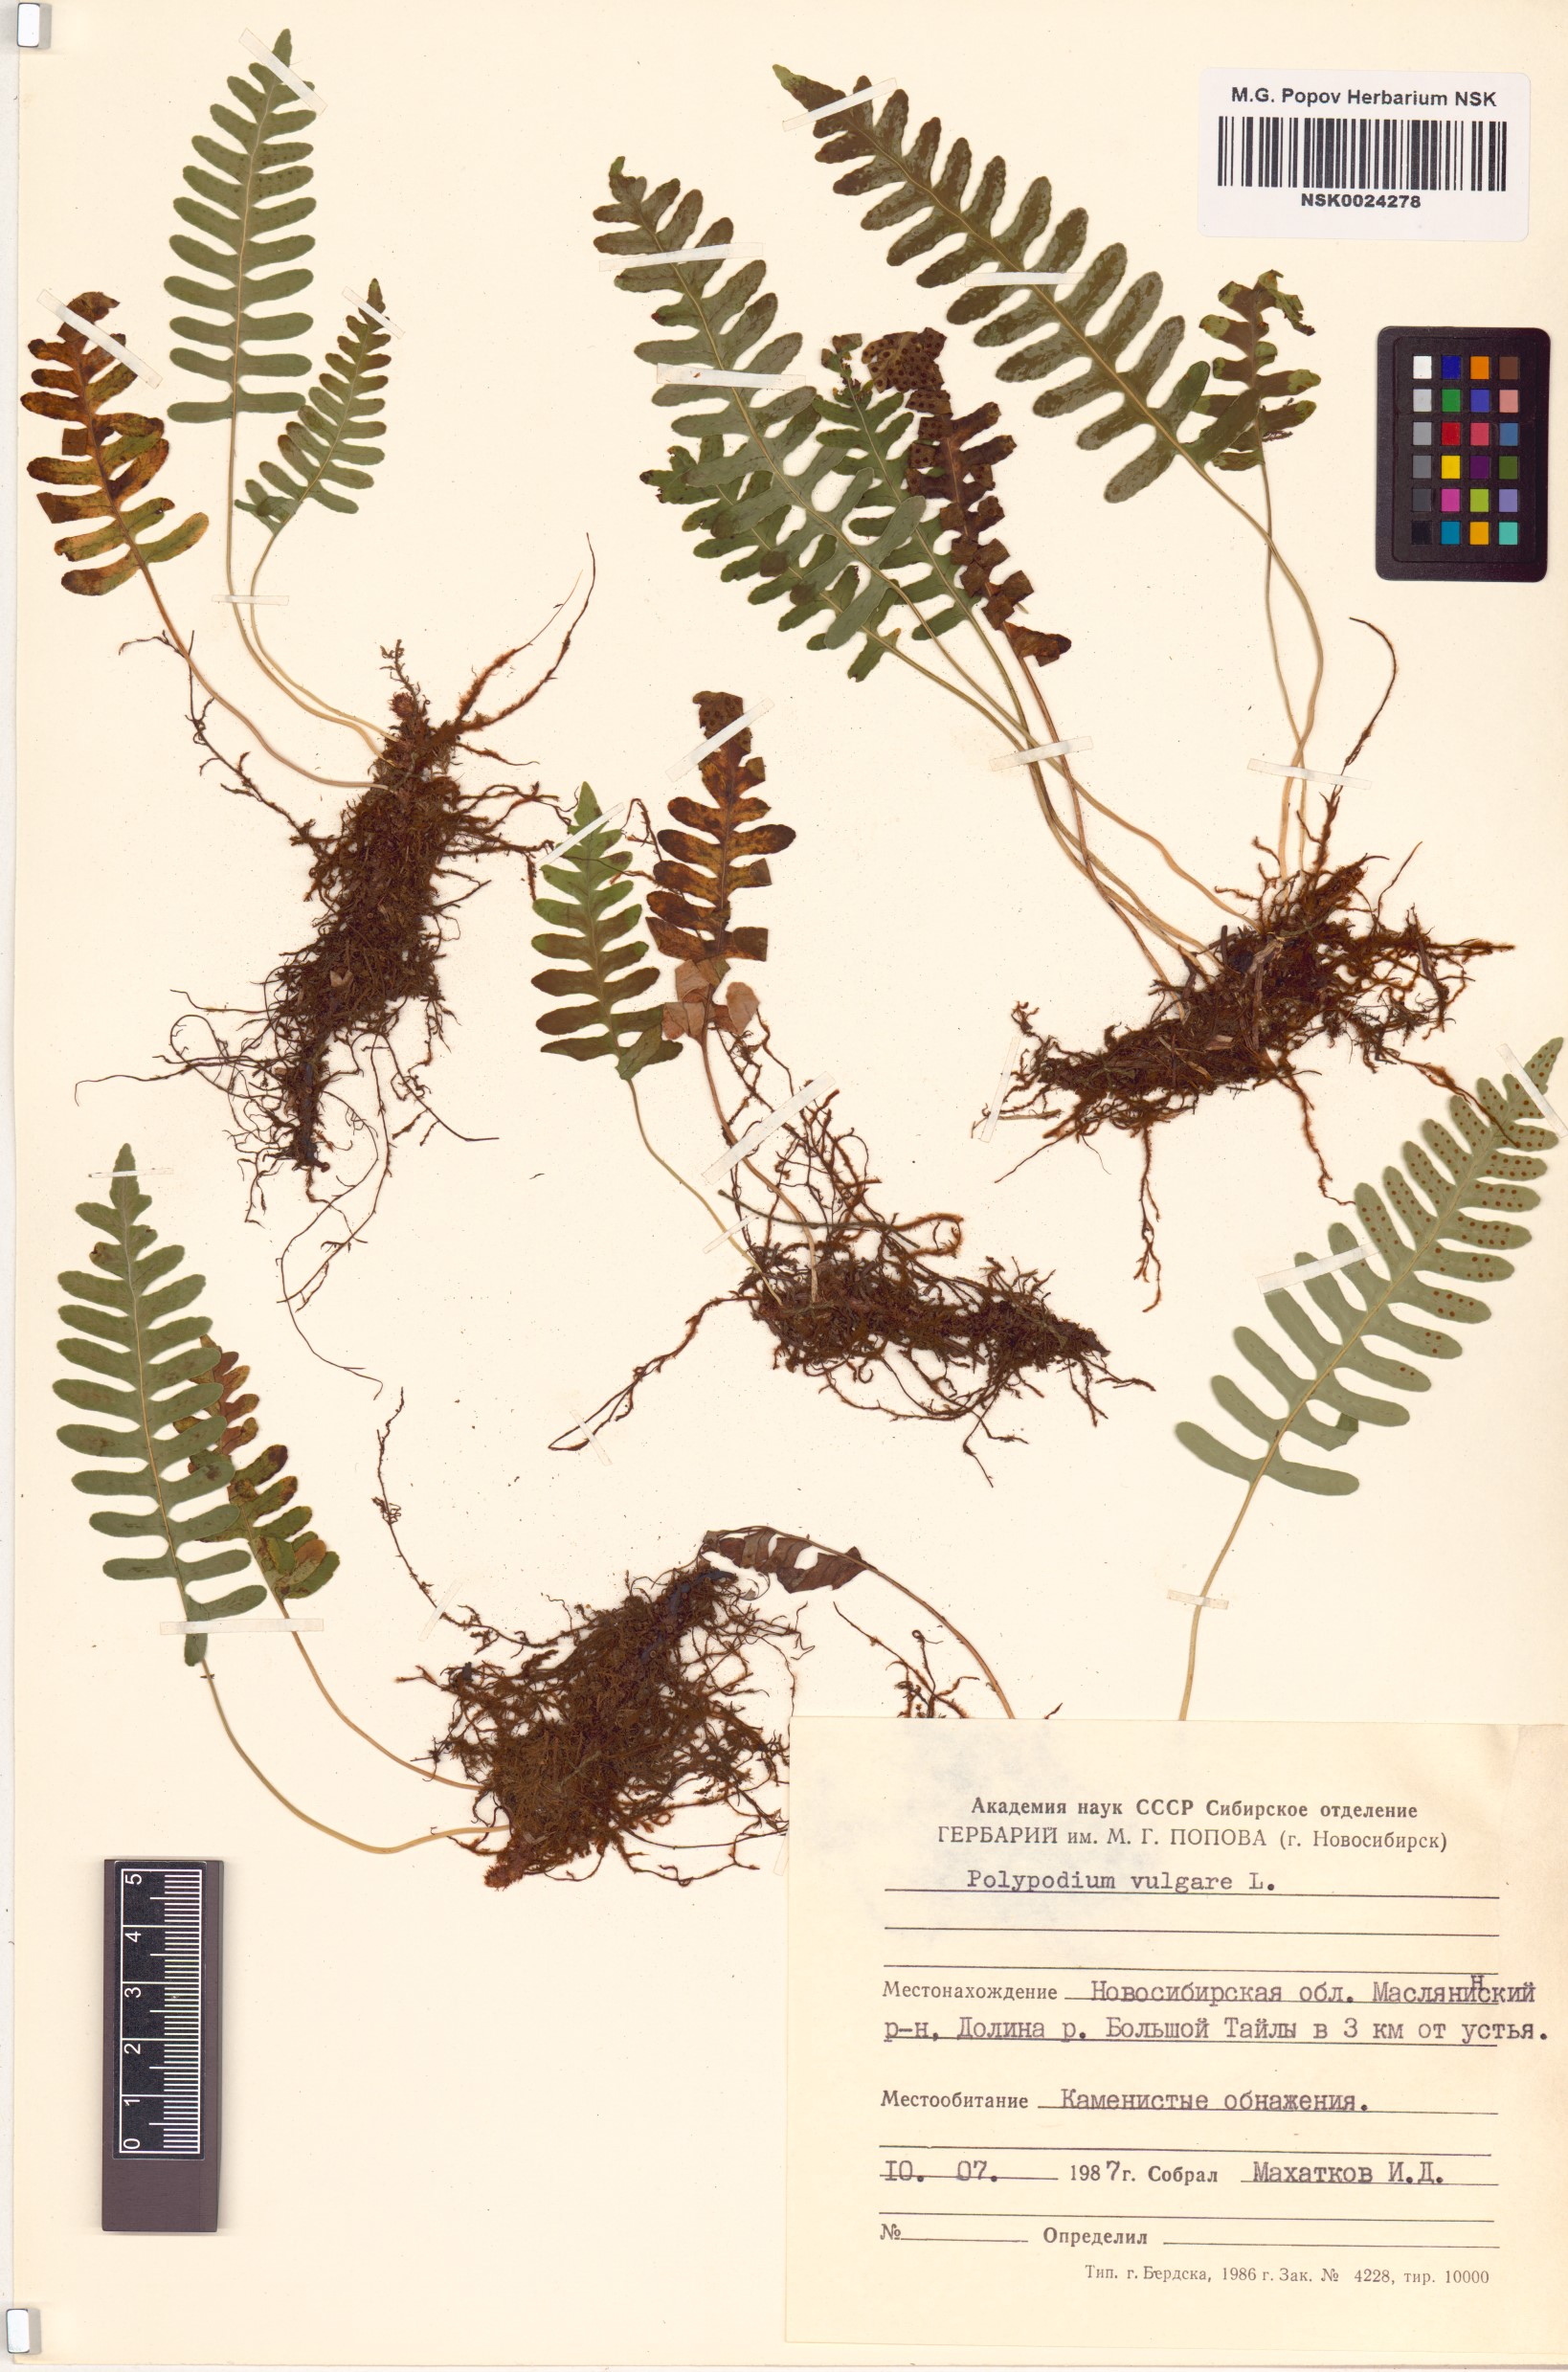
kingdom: Plantae
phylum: Tracheophyta
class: Polypodiopsida
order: Polypodiales
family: Polypodiaceae
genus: Polypodium
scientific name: Polypodium vulgare
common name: Common polypody
